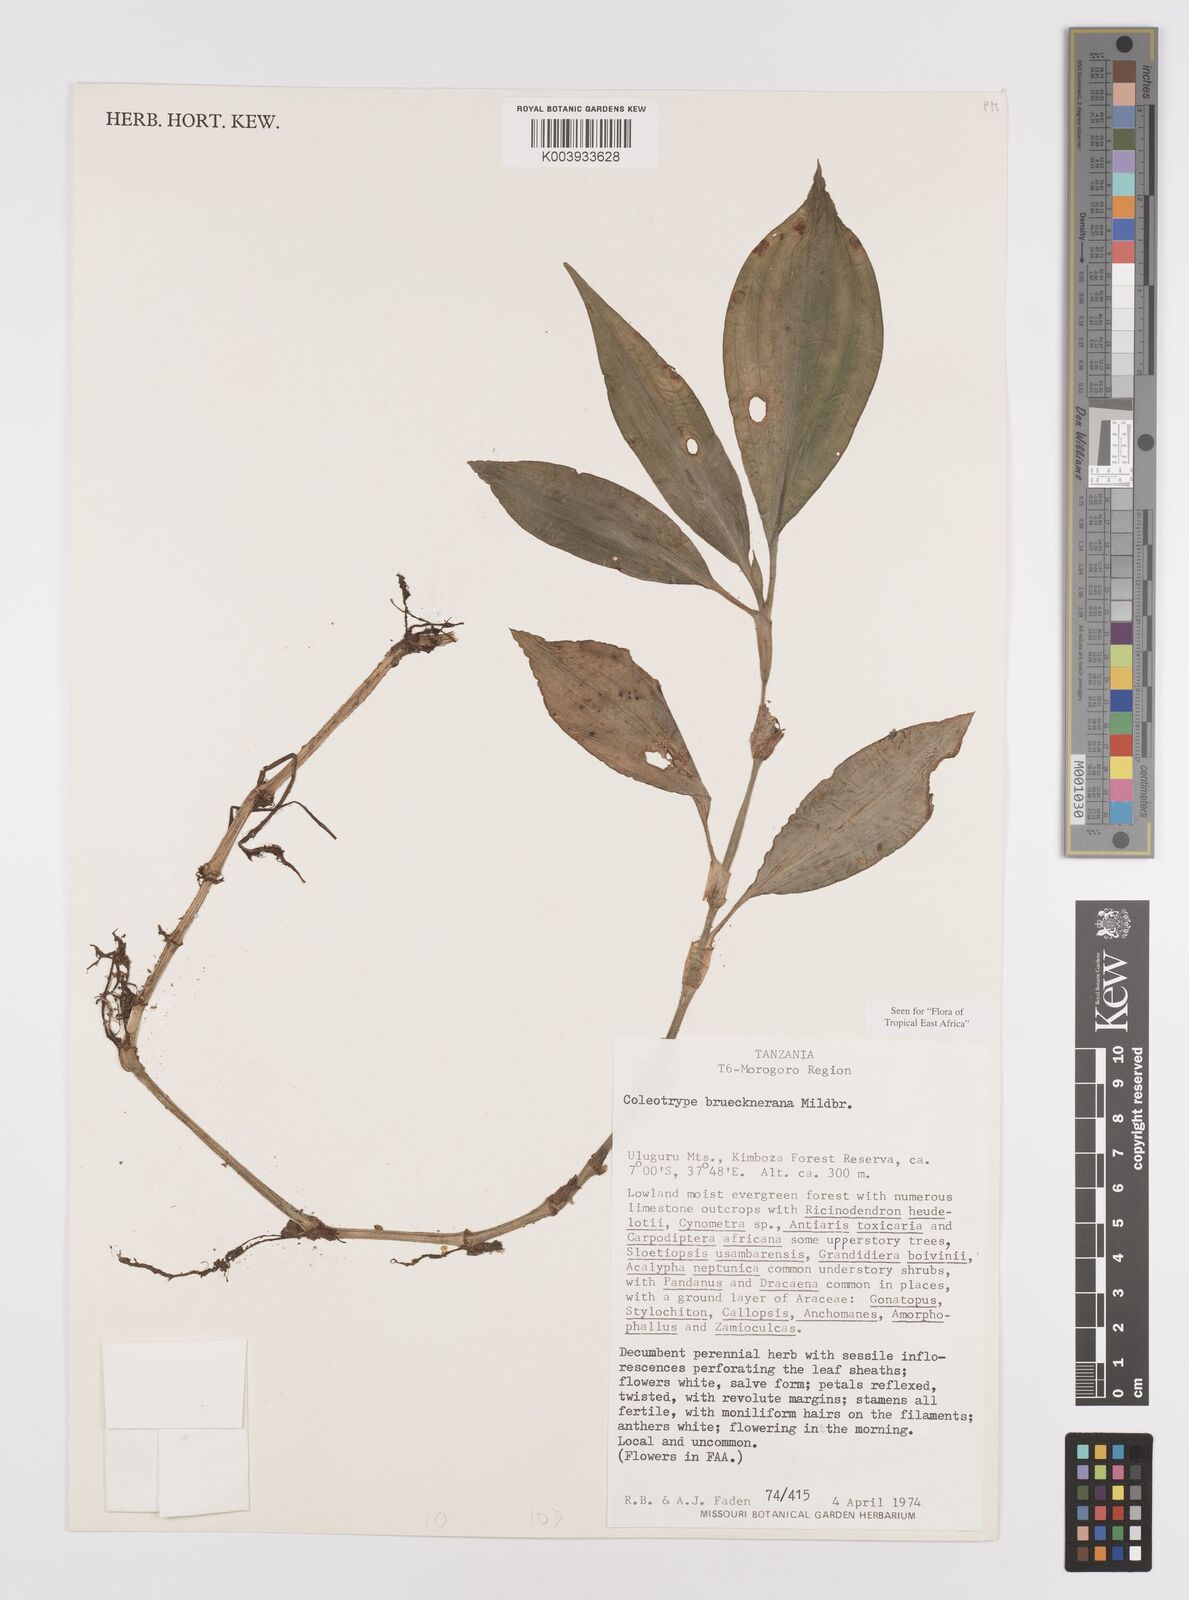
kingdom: Plantae
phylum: Tracheophyta
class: Liliopsida
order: Commelinales
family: Commelinaceae
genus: Coleotrype
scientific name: Coleotrype brueckneriana
